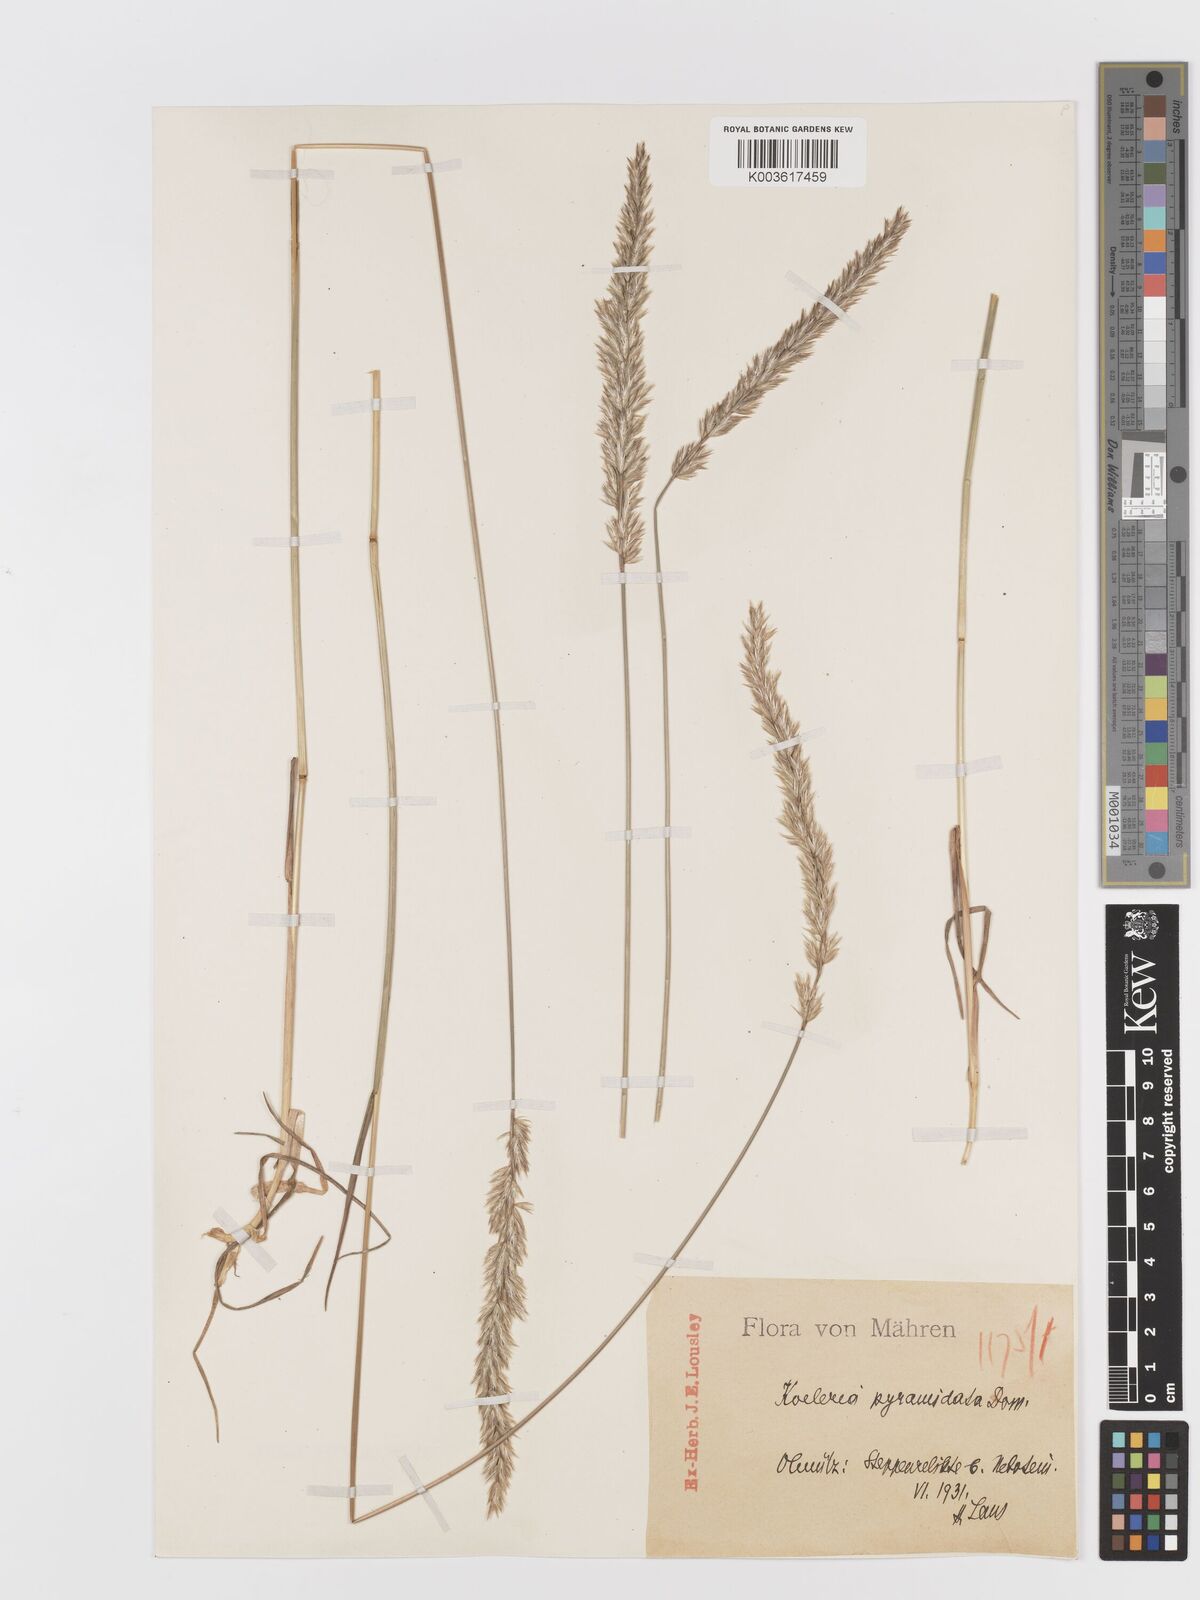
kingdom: Plantae
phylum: Tracheophyta
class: Liliopsida
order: Poales
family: Poaceae
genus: Koeleria
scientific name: Koeleria pyramidata
